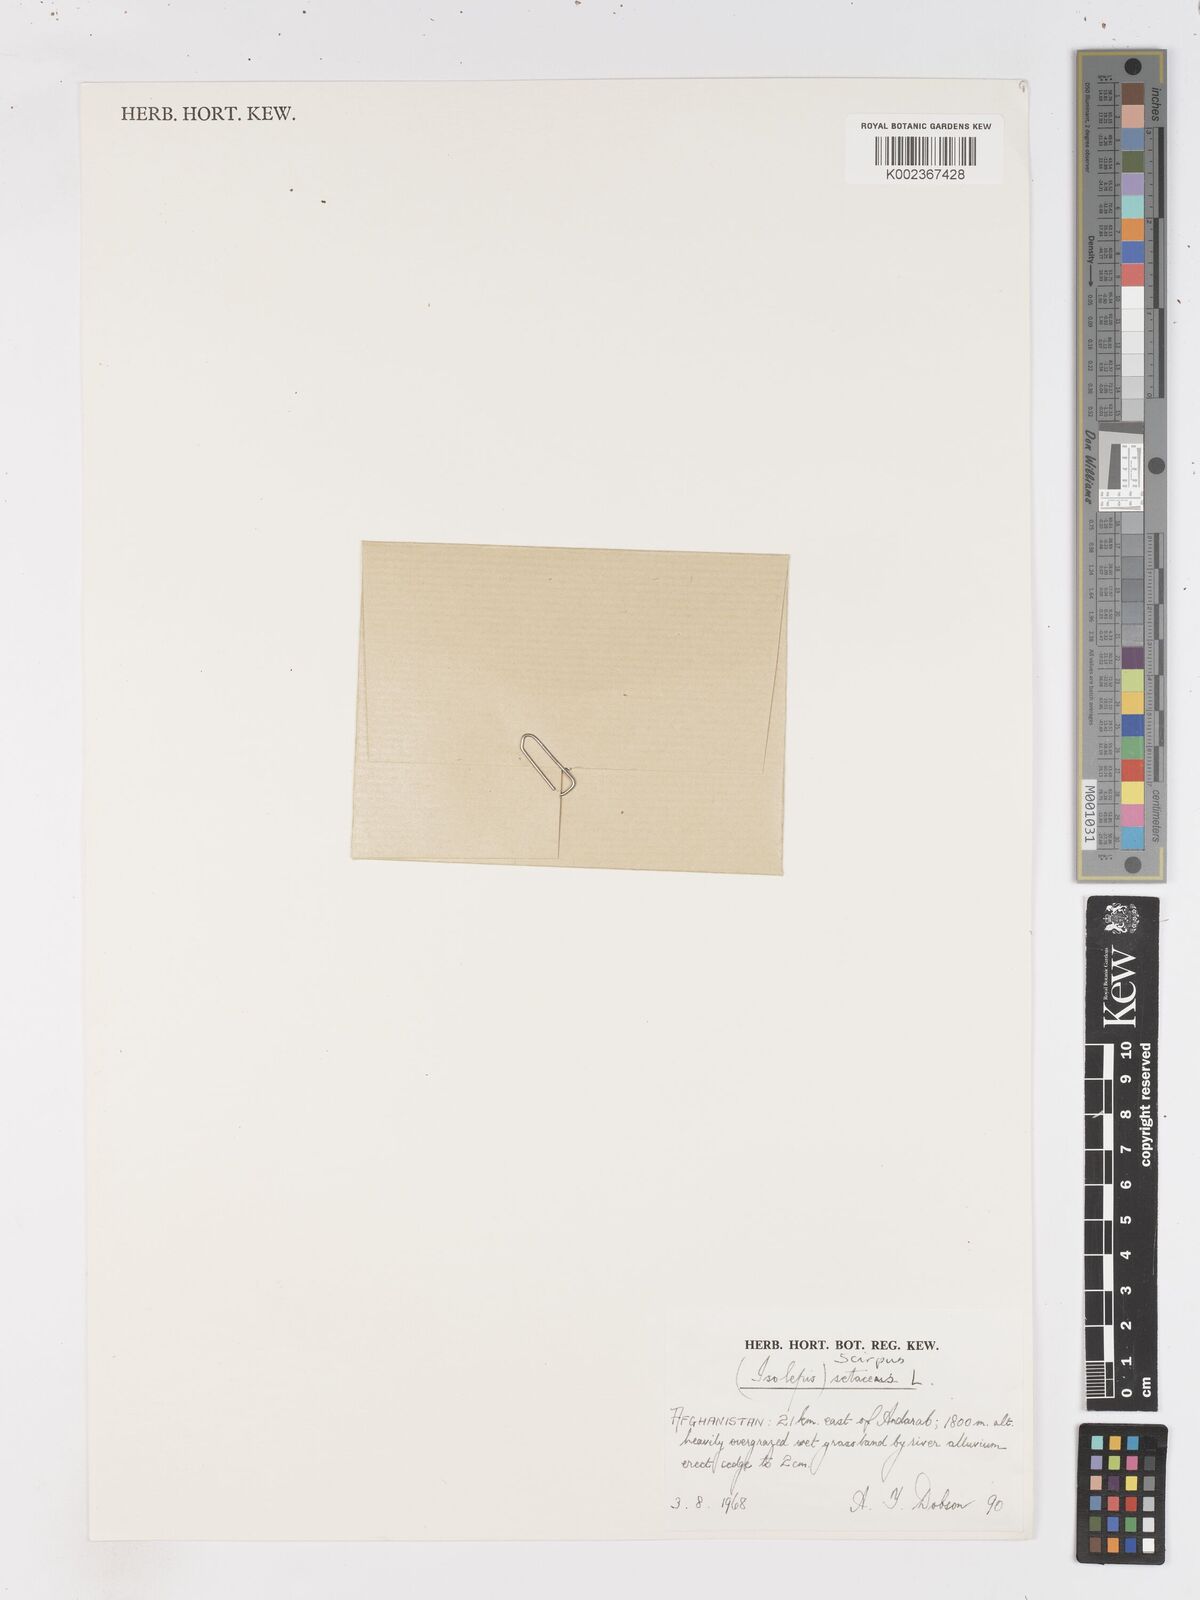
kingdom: Plantae
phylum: Tracheophyta
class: Liliopsida
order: Poales
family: Cyperaceae
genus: Isolepis
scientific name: Isolepis setacea
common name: Bristle club-rush
